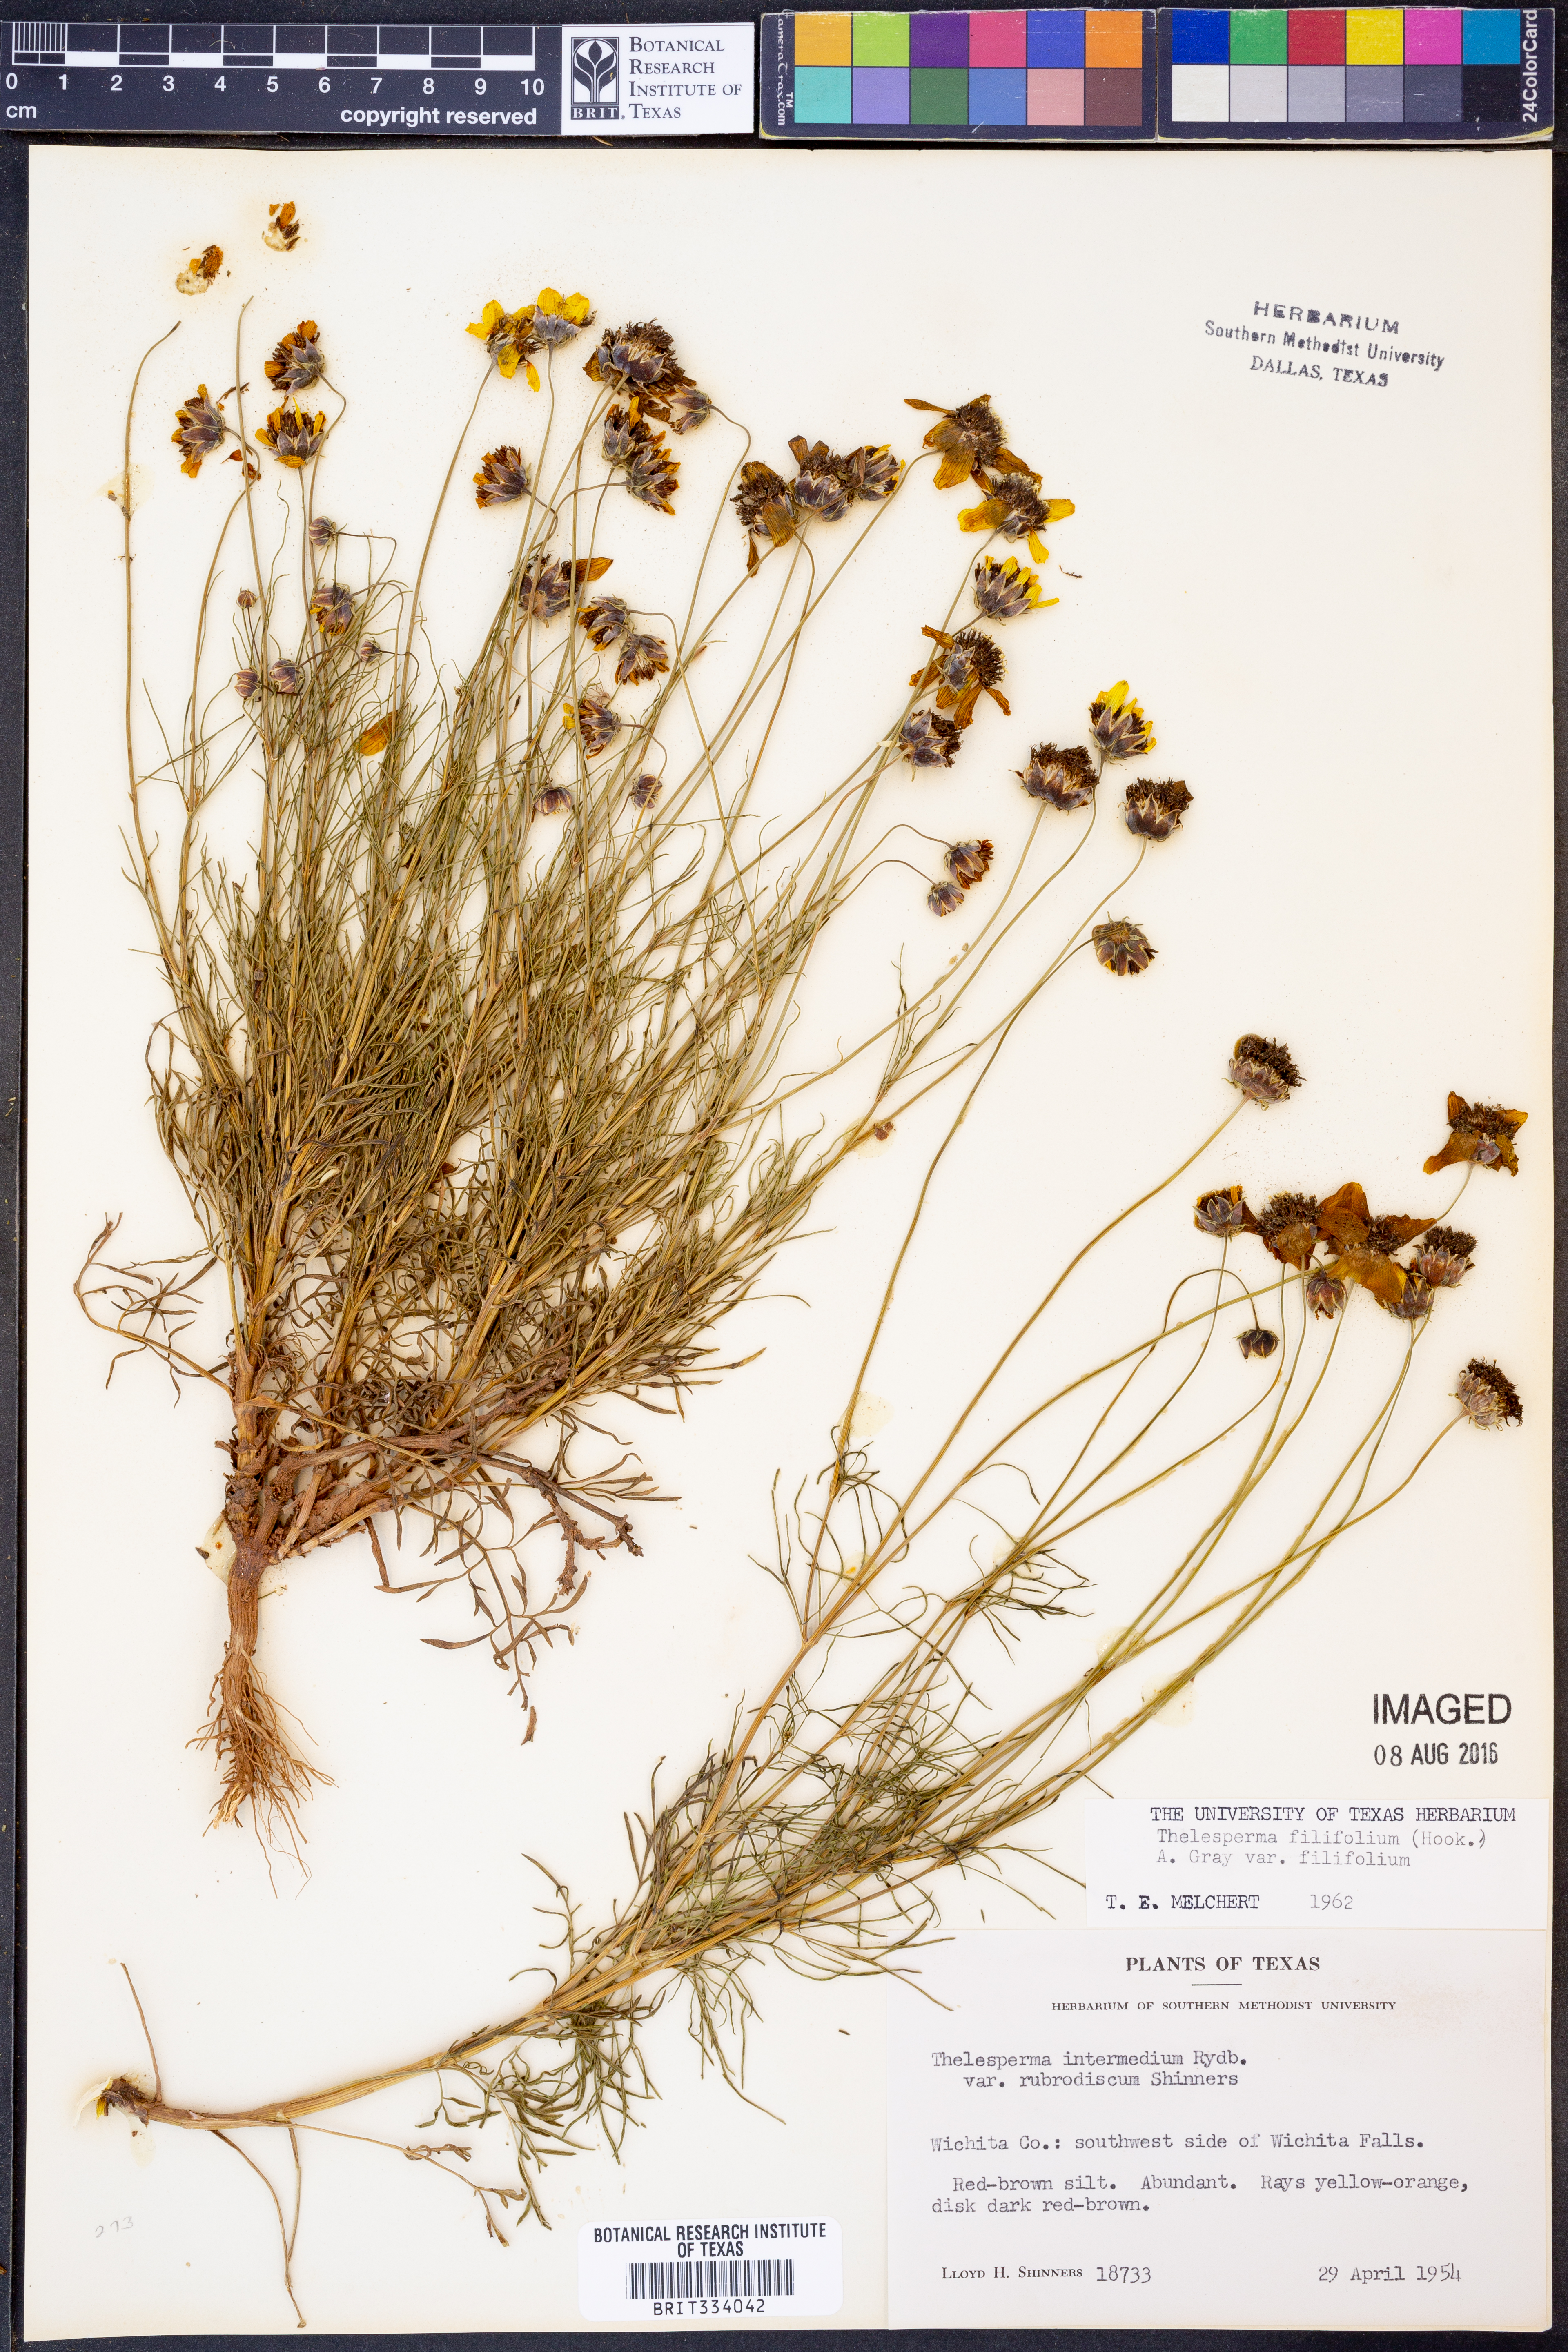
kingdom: Plantae
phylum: Tracheophyta
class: Magnoliopsida
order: Asterales
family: Asteraceae
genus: Thelesperma
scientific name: Thelesperma filifolium
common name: Stiff greenthread
